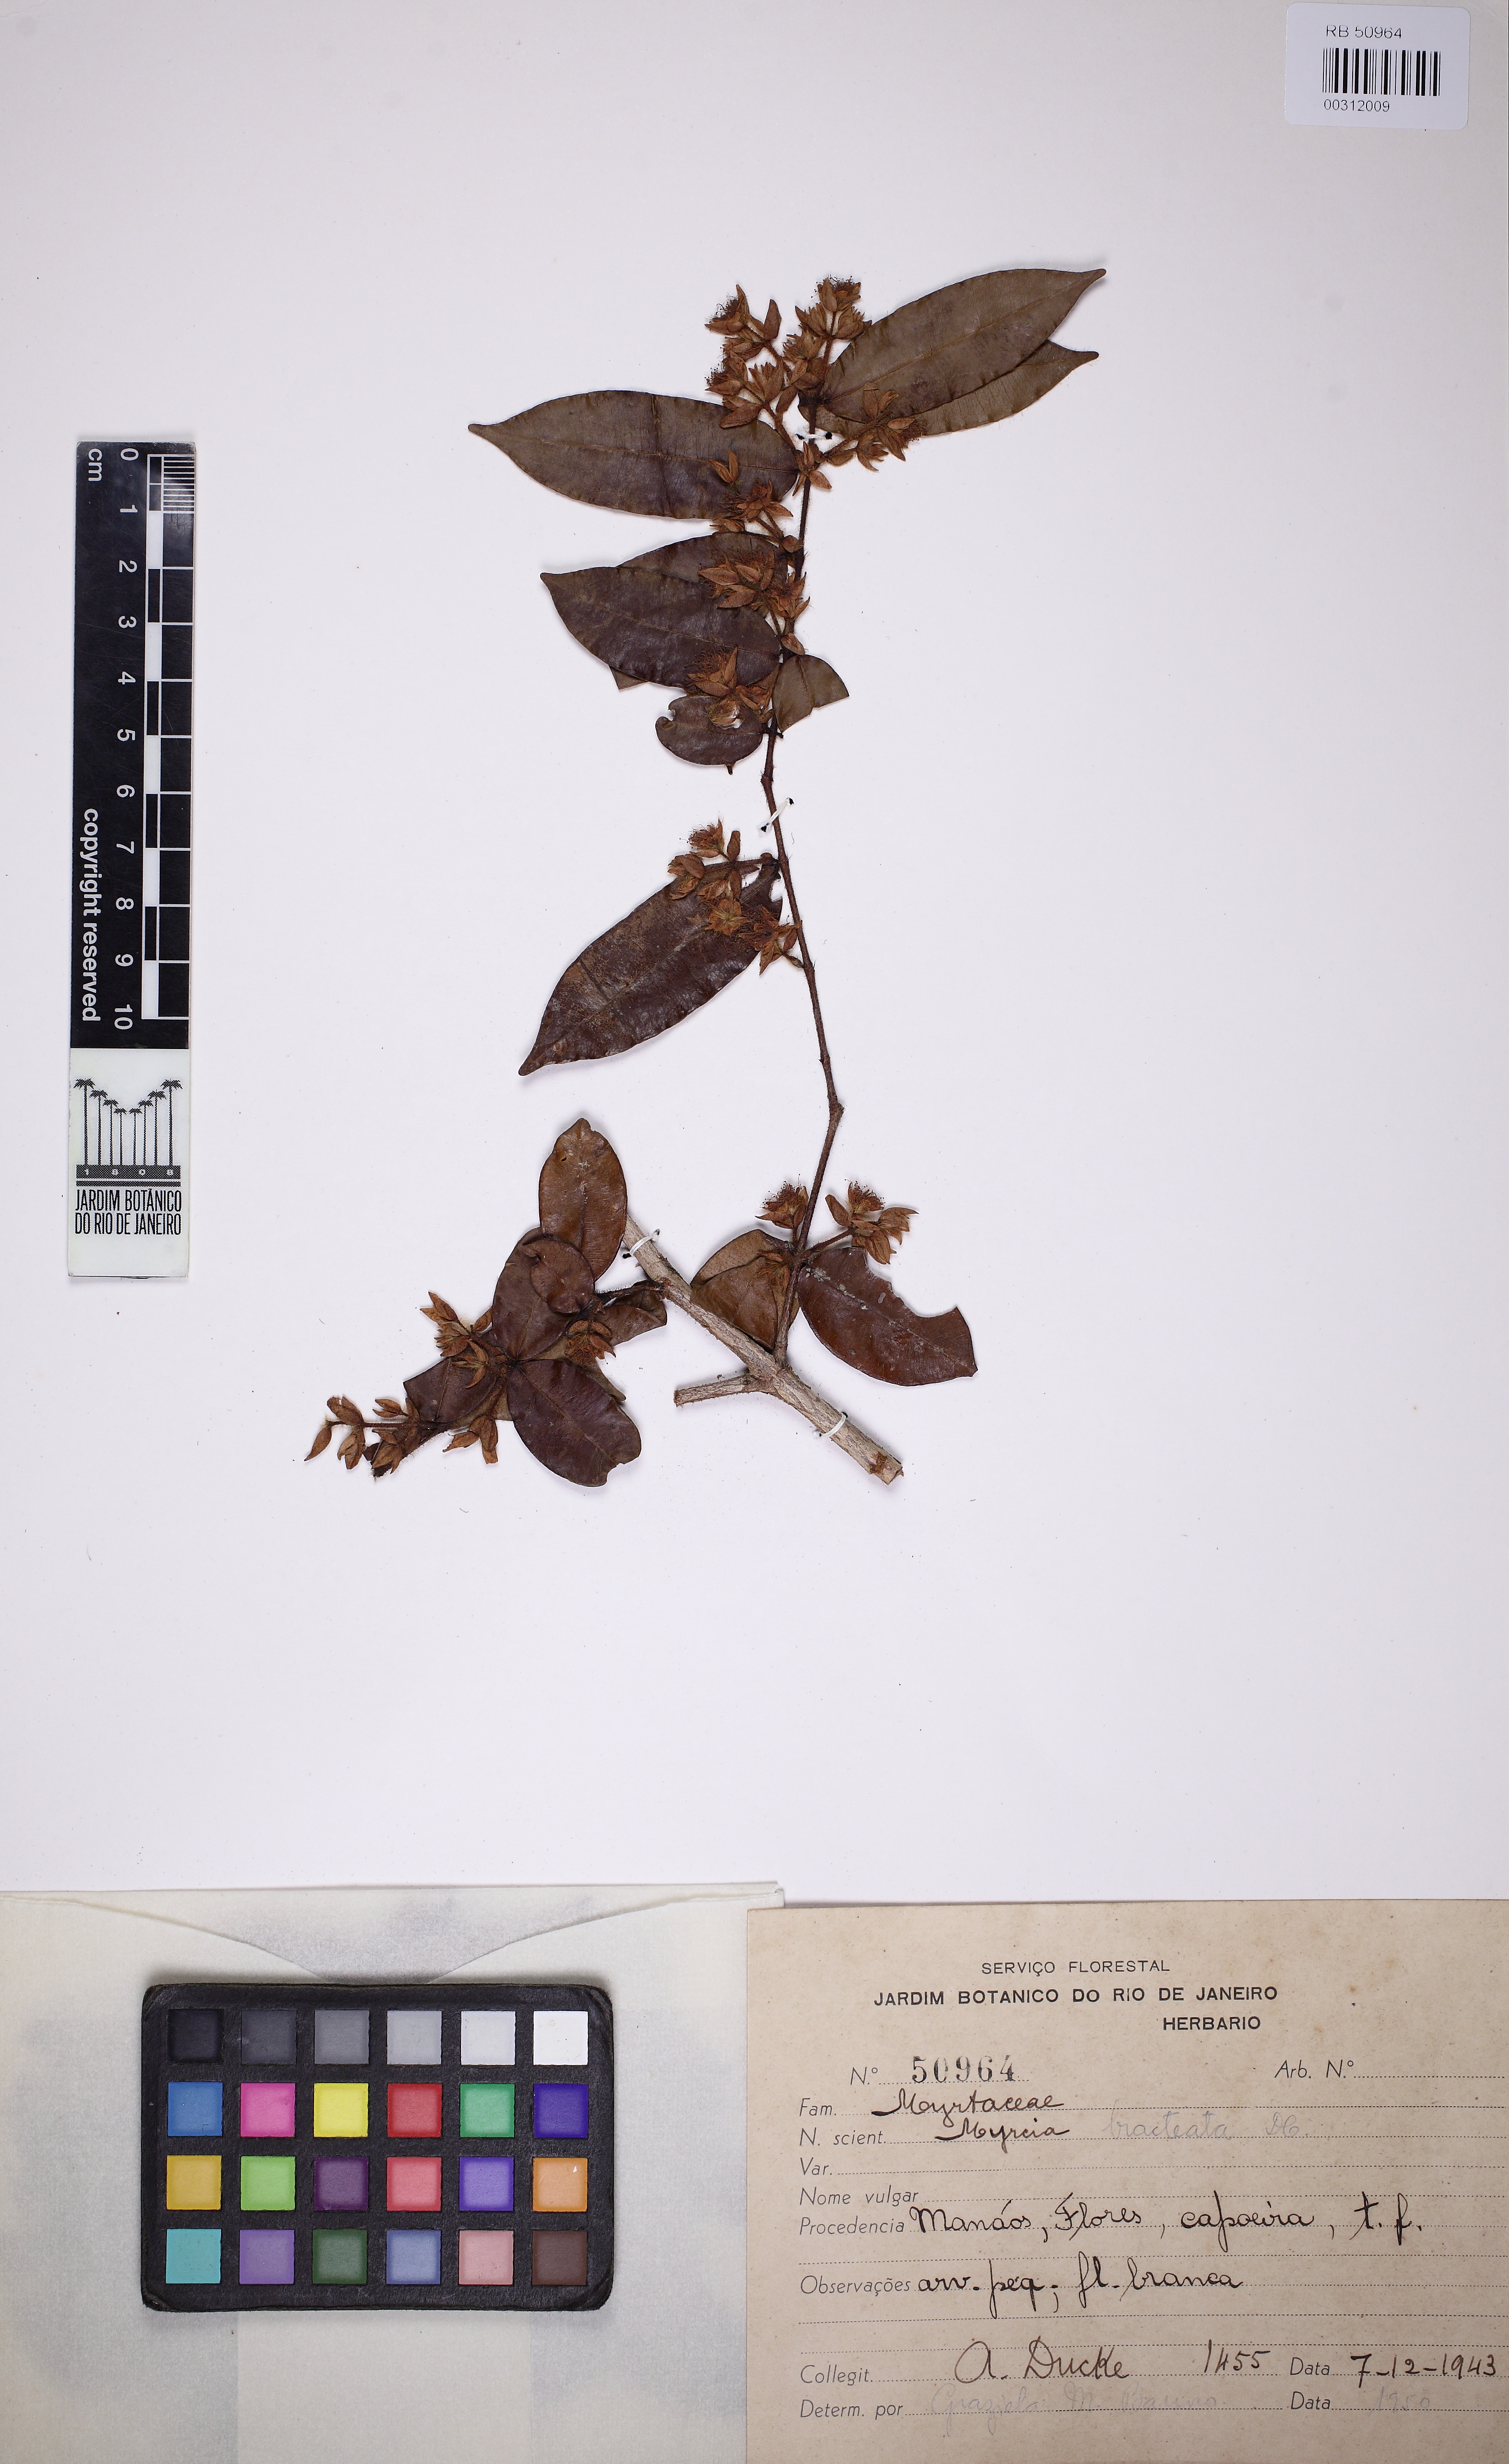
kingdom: Plantae
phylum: Tracheophyta
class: Magnoliopsida
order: Myrtales
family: Myrtaceae
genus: Myrcia
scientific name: Myrcia bracteata
